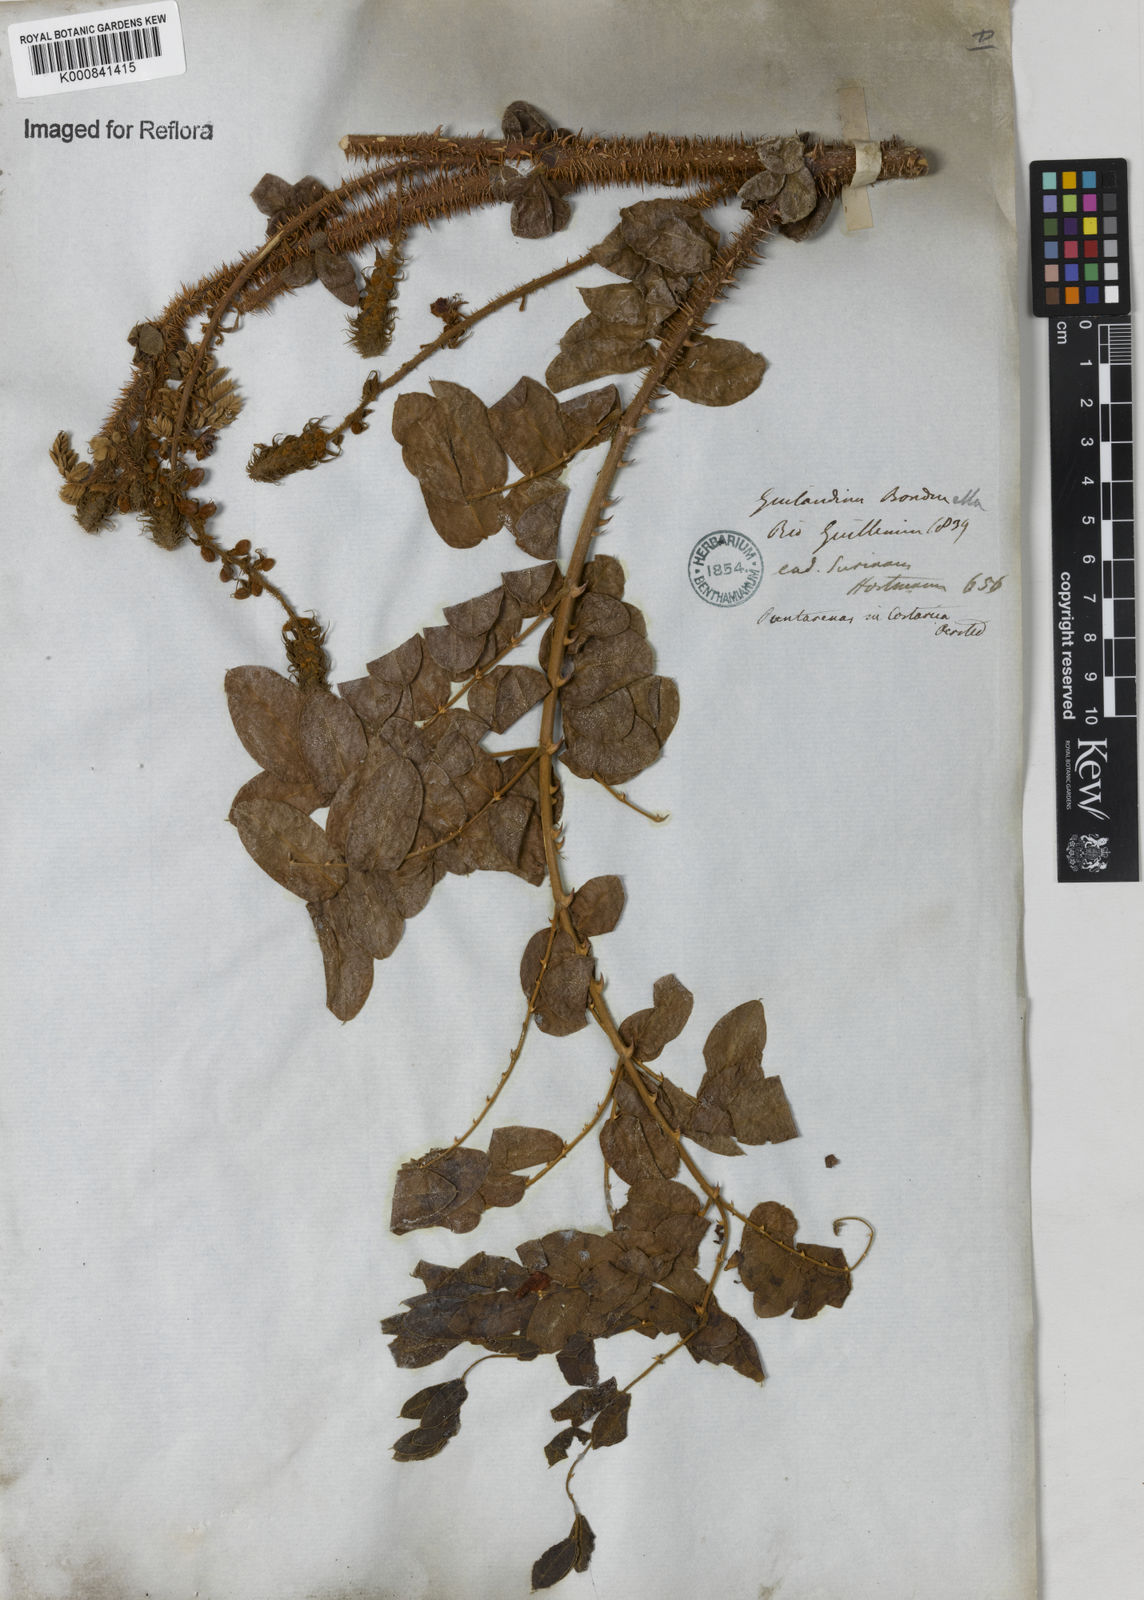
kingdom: Plantae
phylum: Tracheophyta
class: Magnoliopsida
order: Fabales
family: Fabaceae
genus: Guilandina
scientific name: Guilandina bonduc
